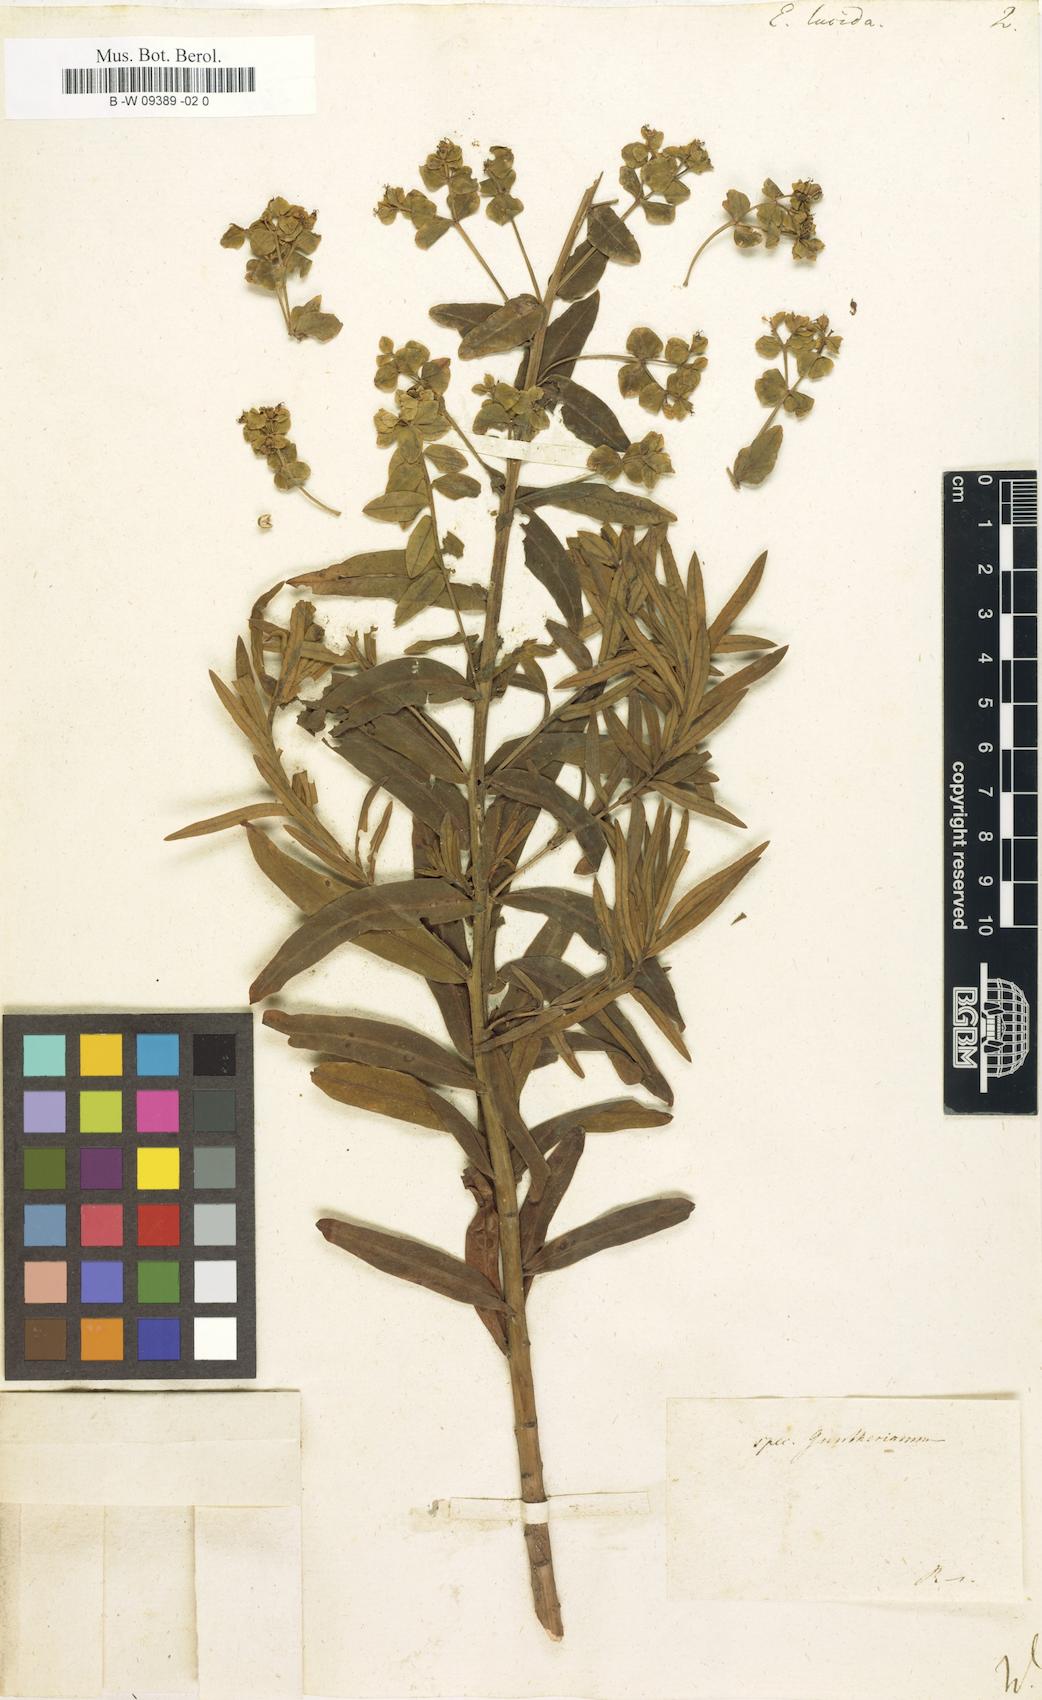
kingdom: Plantae
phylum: Tracheophyta
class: Magnoliopsida
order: Malpighiales
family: Euphorbiaceae
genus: Euphorbia
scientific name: Euphorbia lucida
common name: Shining spurge
